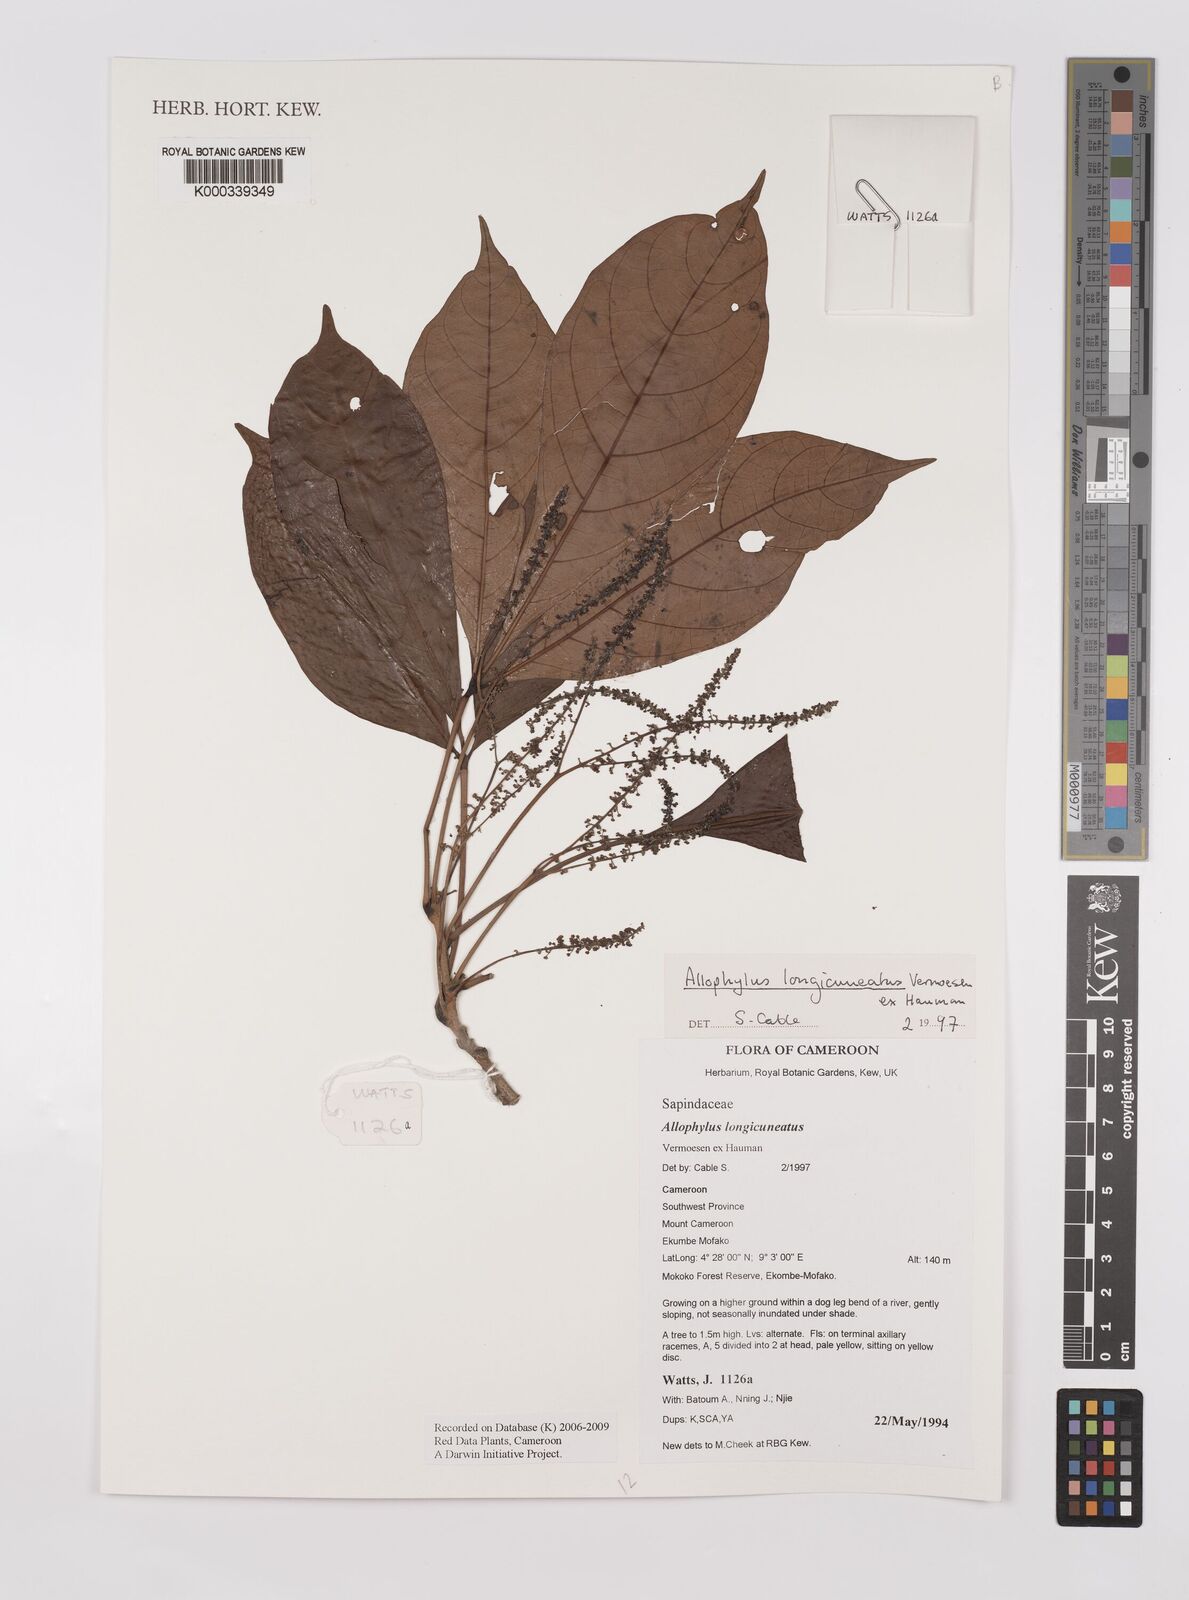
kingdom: Plantae
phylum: Tracheophyta
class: Magnoliopsida
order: Sapindales
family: Sapindaceae
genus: Allophylus
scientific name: Allophylus longicuneatus
